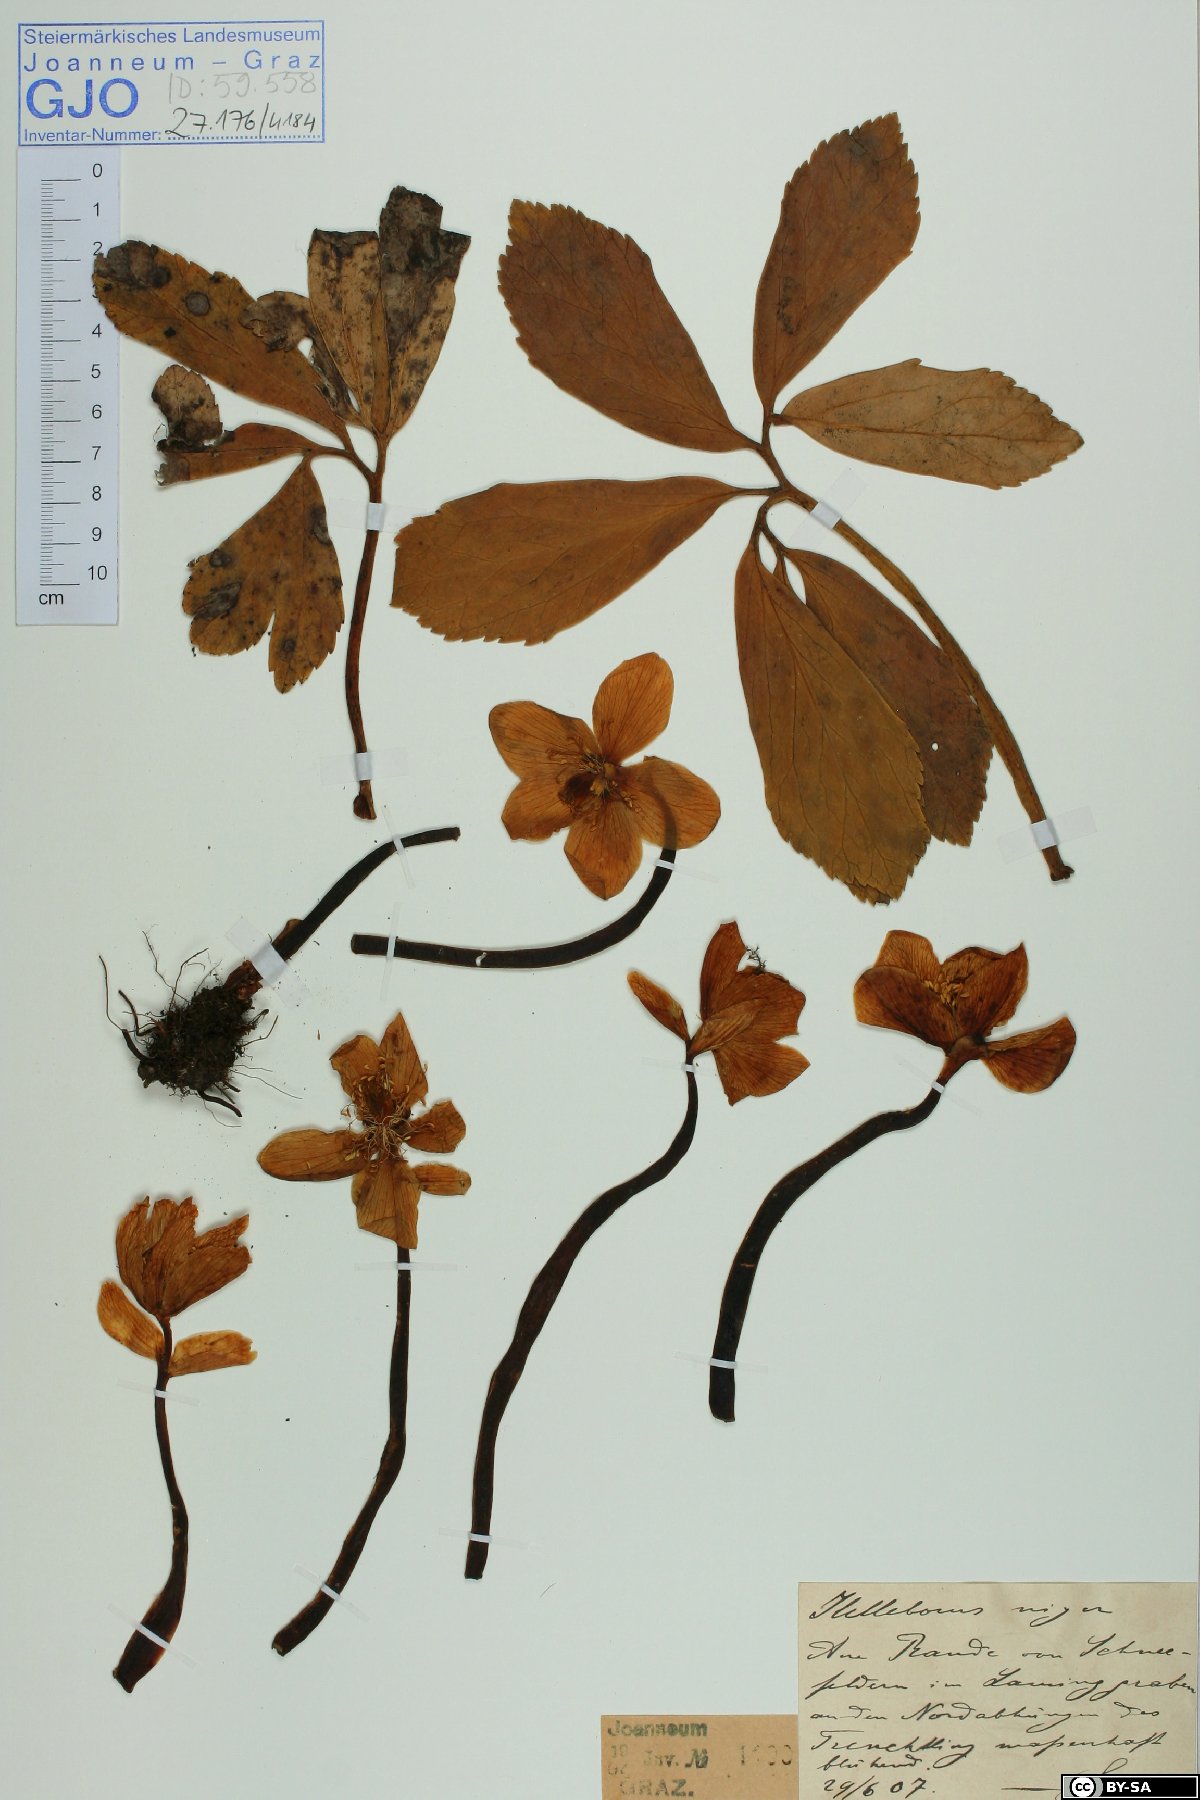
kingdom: Plantae
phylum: Tracheophyta
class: Magnoliopsida
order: Ranunculales
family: Ranunculaceae
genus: Helleborus
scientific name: Helleborus niger
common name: Black hellebore
